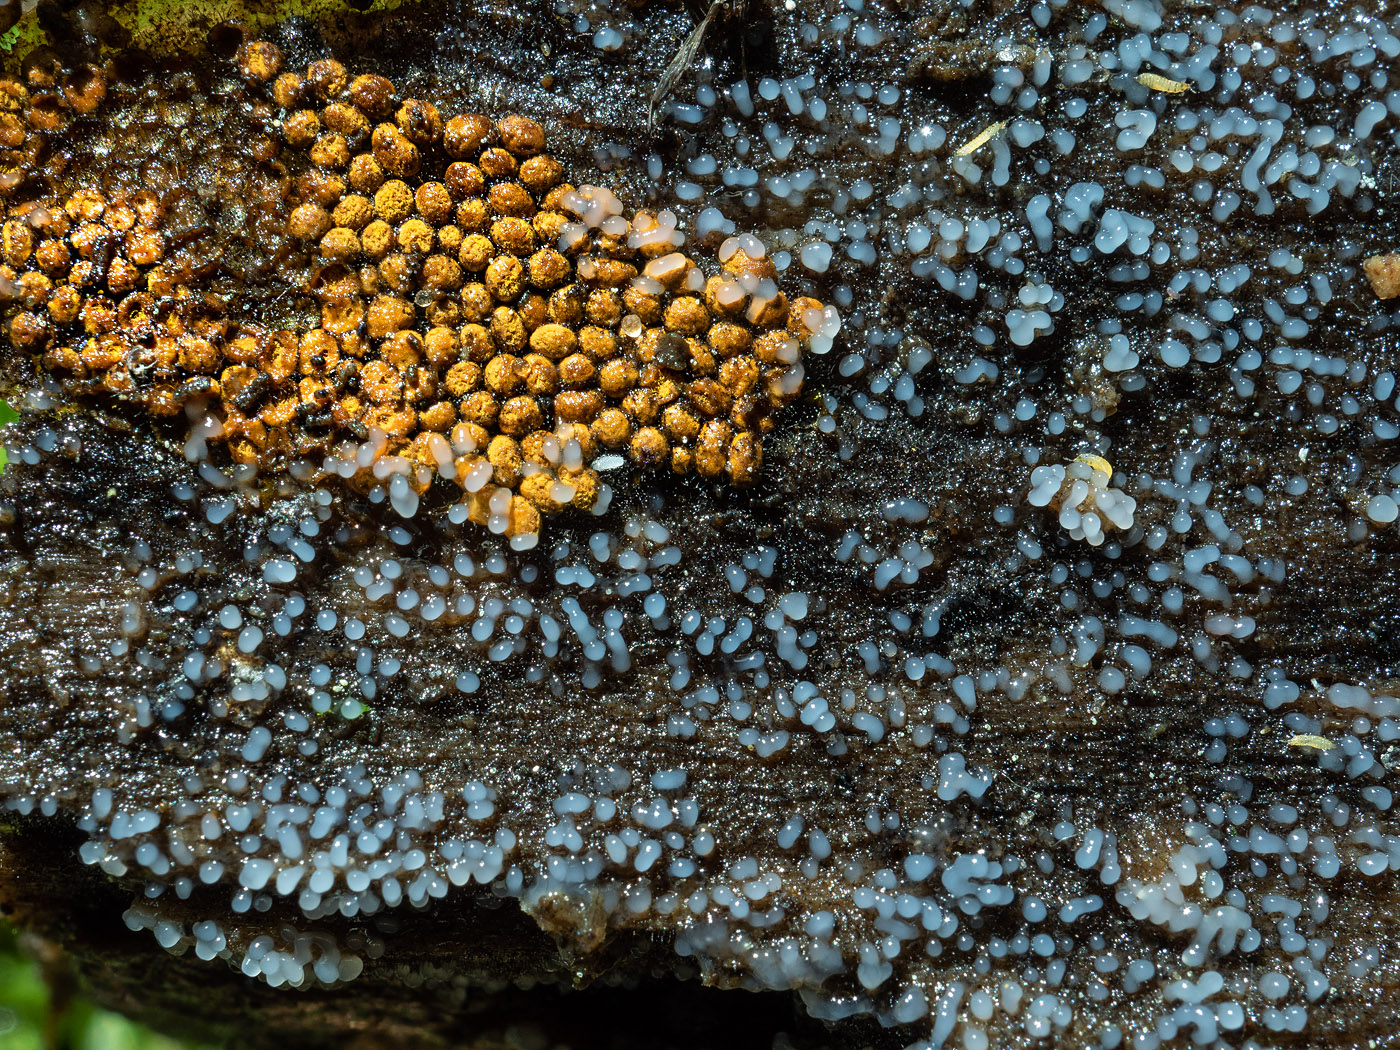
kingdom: Protozoa
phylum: Mycetozoa
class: Myxomycetes
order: Trichiales
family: Trichiaceae
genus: Trichia
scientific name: Trichia scabra
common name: tæppe-hårbold
